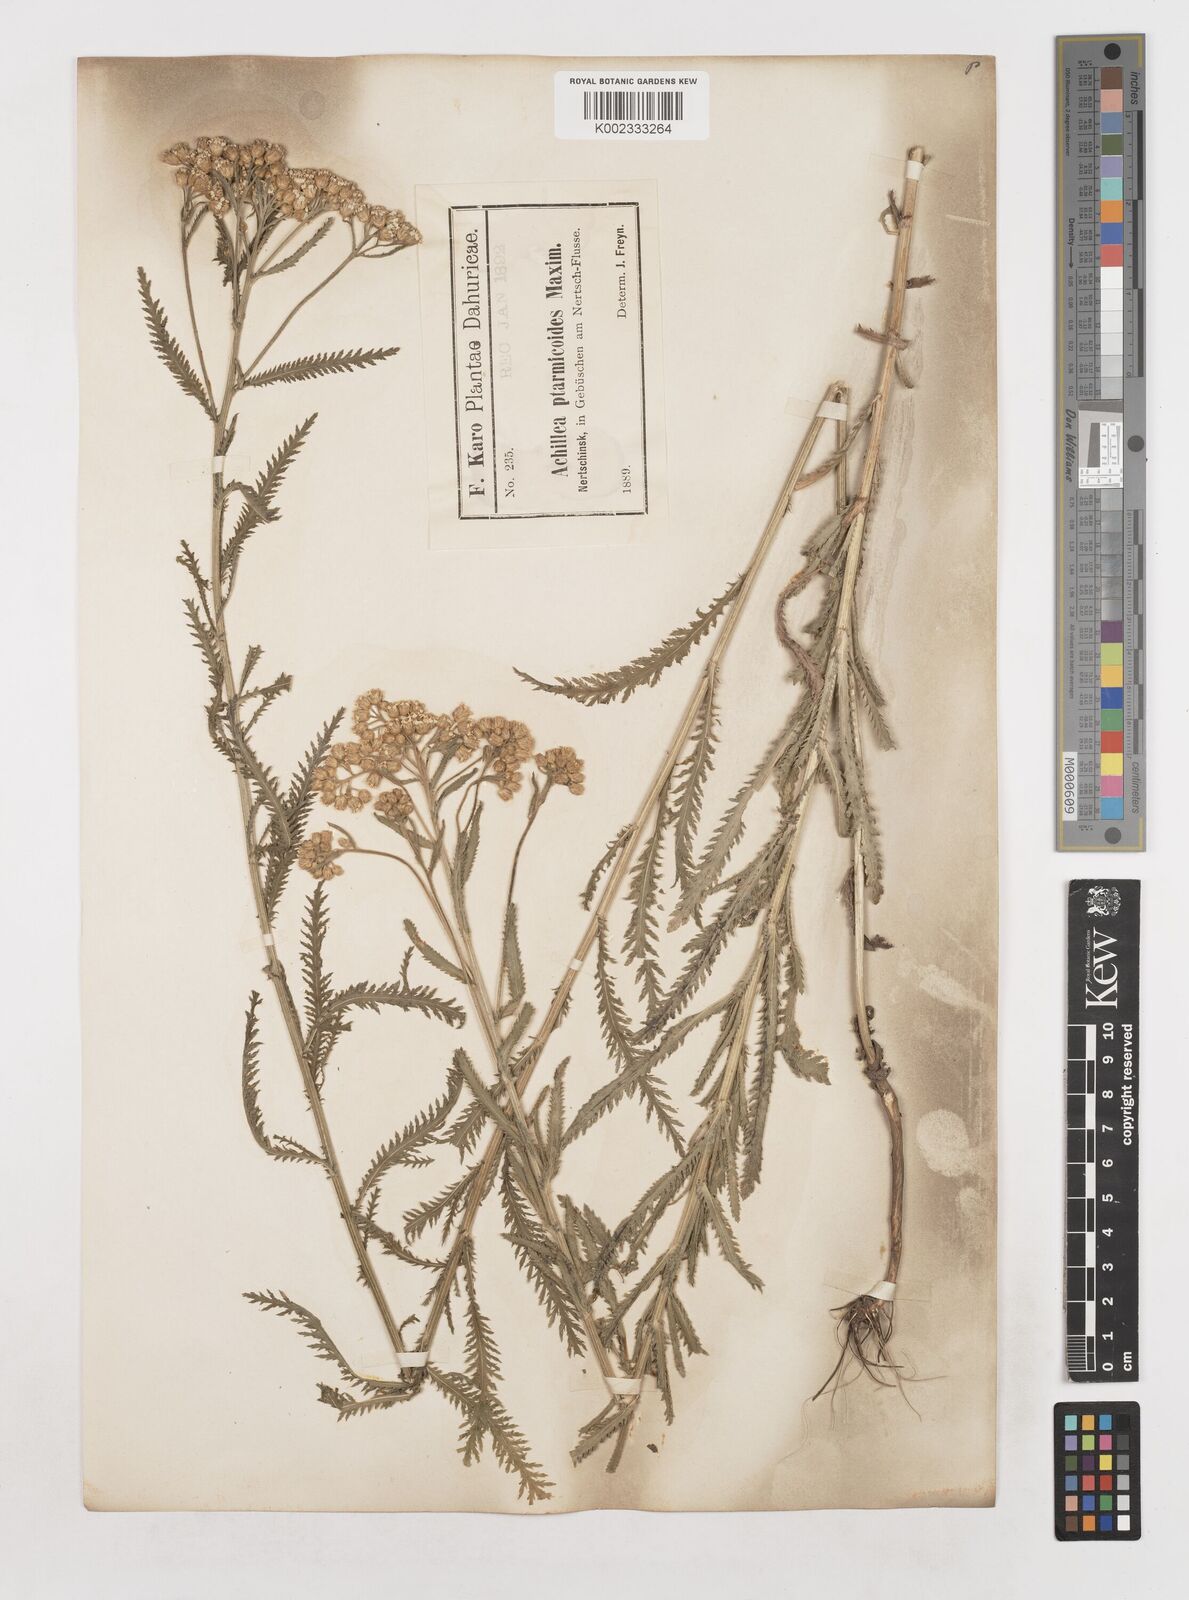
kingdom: Plantae
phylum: Tracheophyta
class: Magnoliopsida
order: Asterales
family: Asteraceae
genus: Achillea
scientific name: Achillea ptarmicoides
